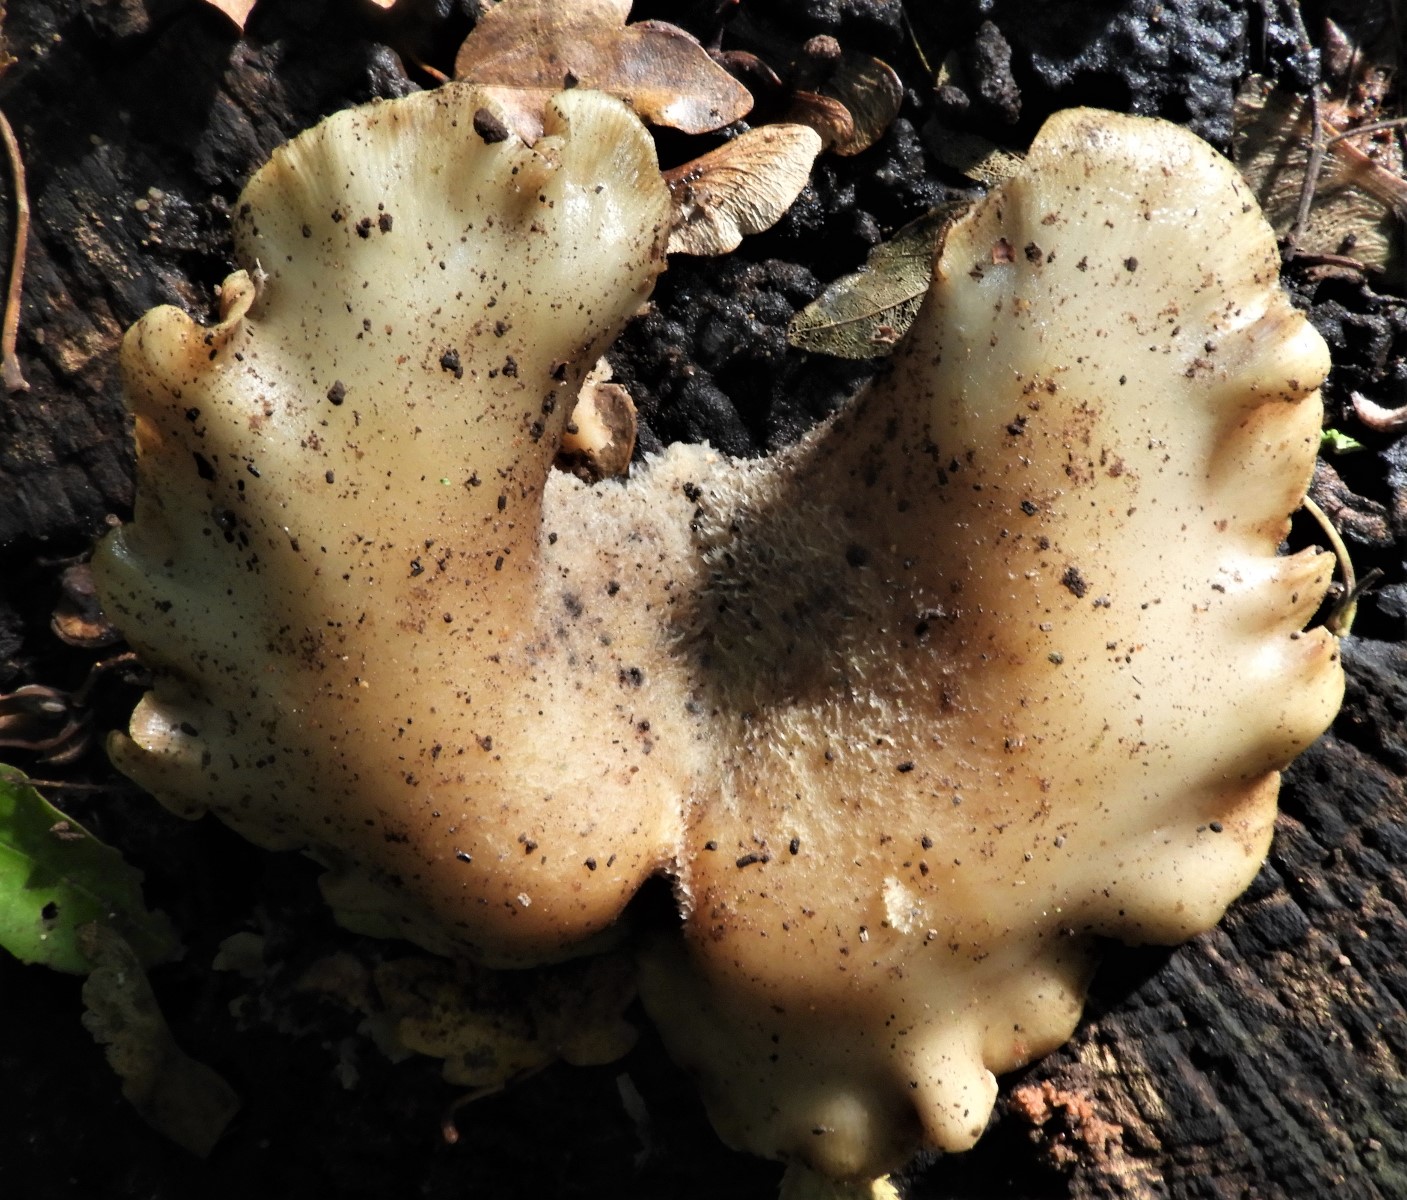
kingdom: Fungi
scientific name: Fungi
